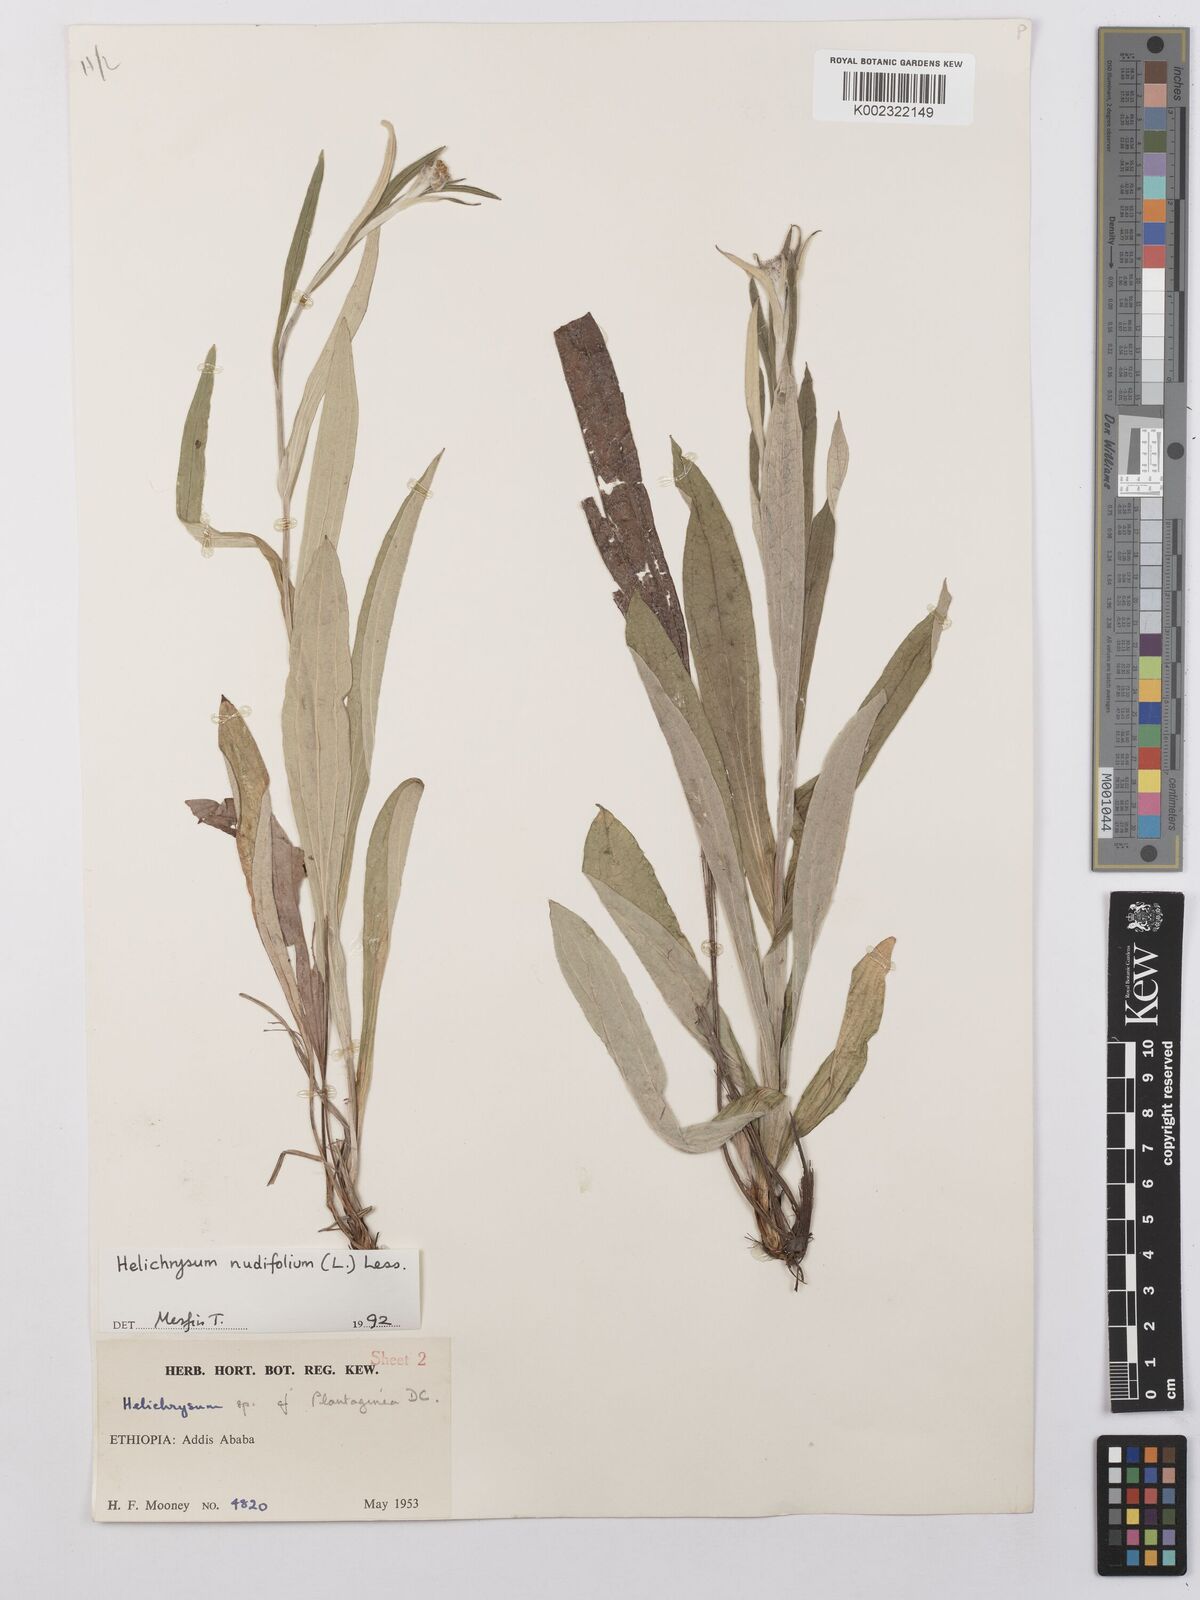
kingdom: Plantae
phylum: Tracheophyta
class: Magnoliopsida
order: Asterales
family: Asteraceae
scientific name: Asteraceae
